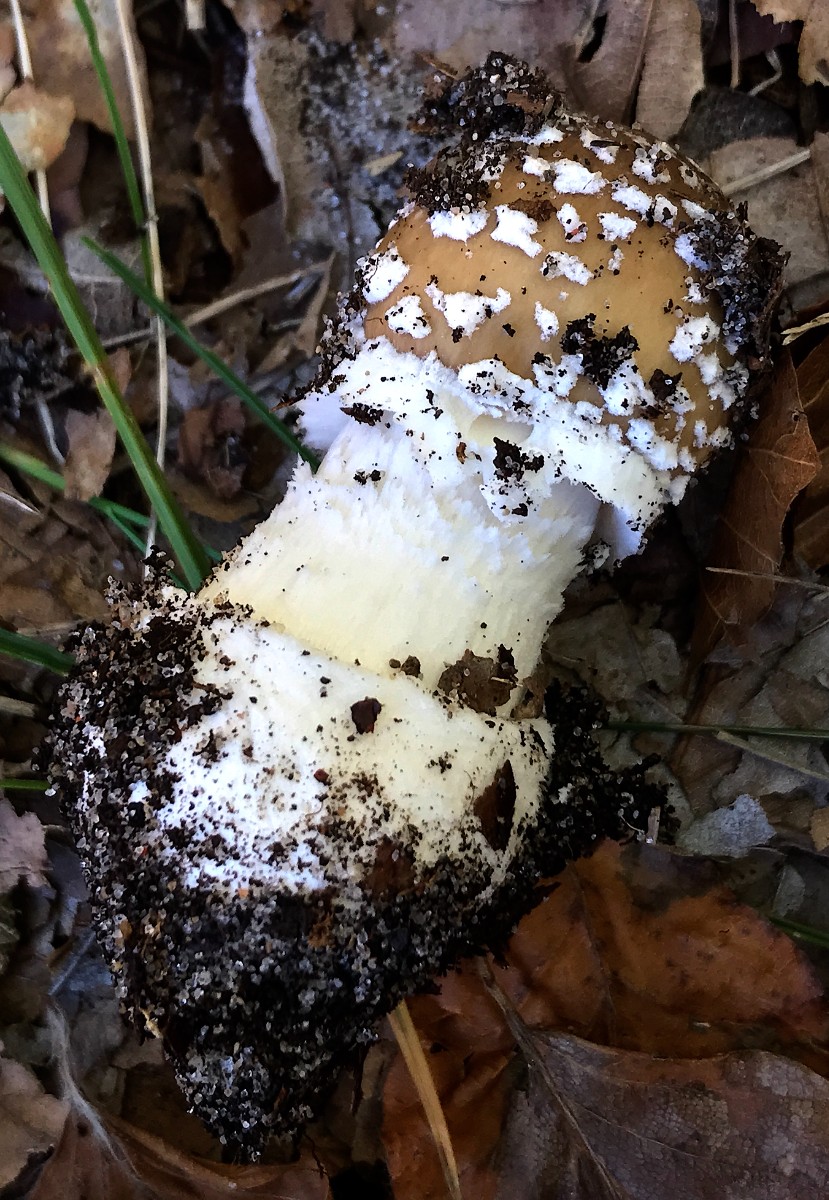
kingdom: Fungi
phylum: Basidiomycota
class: Agaricomycetes
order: Agaricales
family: Amanitaceae
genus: Amanita
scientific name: Amanita pantherina
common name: panter-fluesvamp
